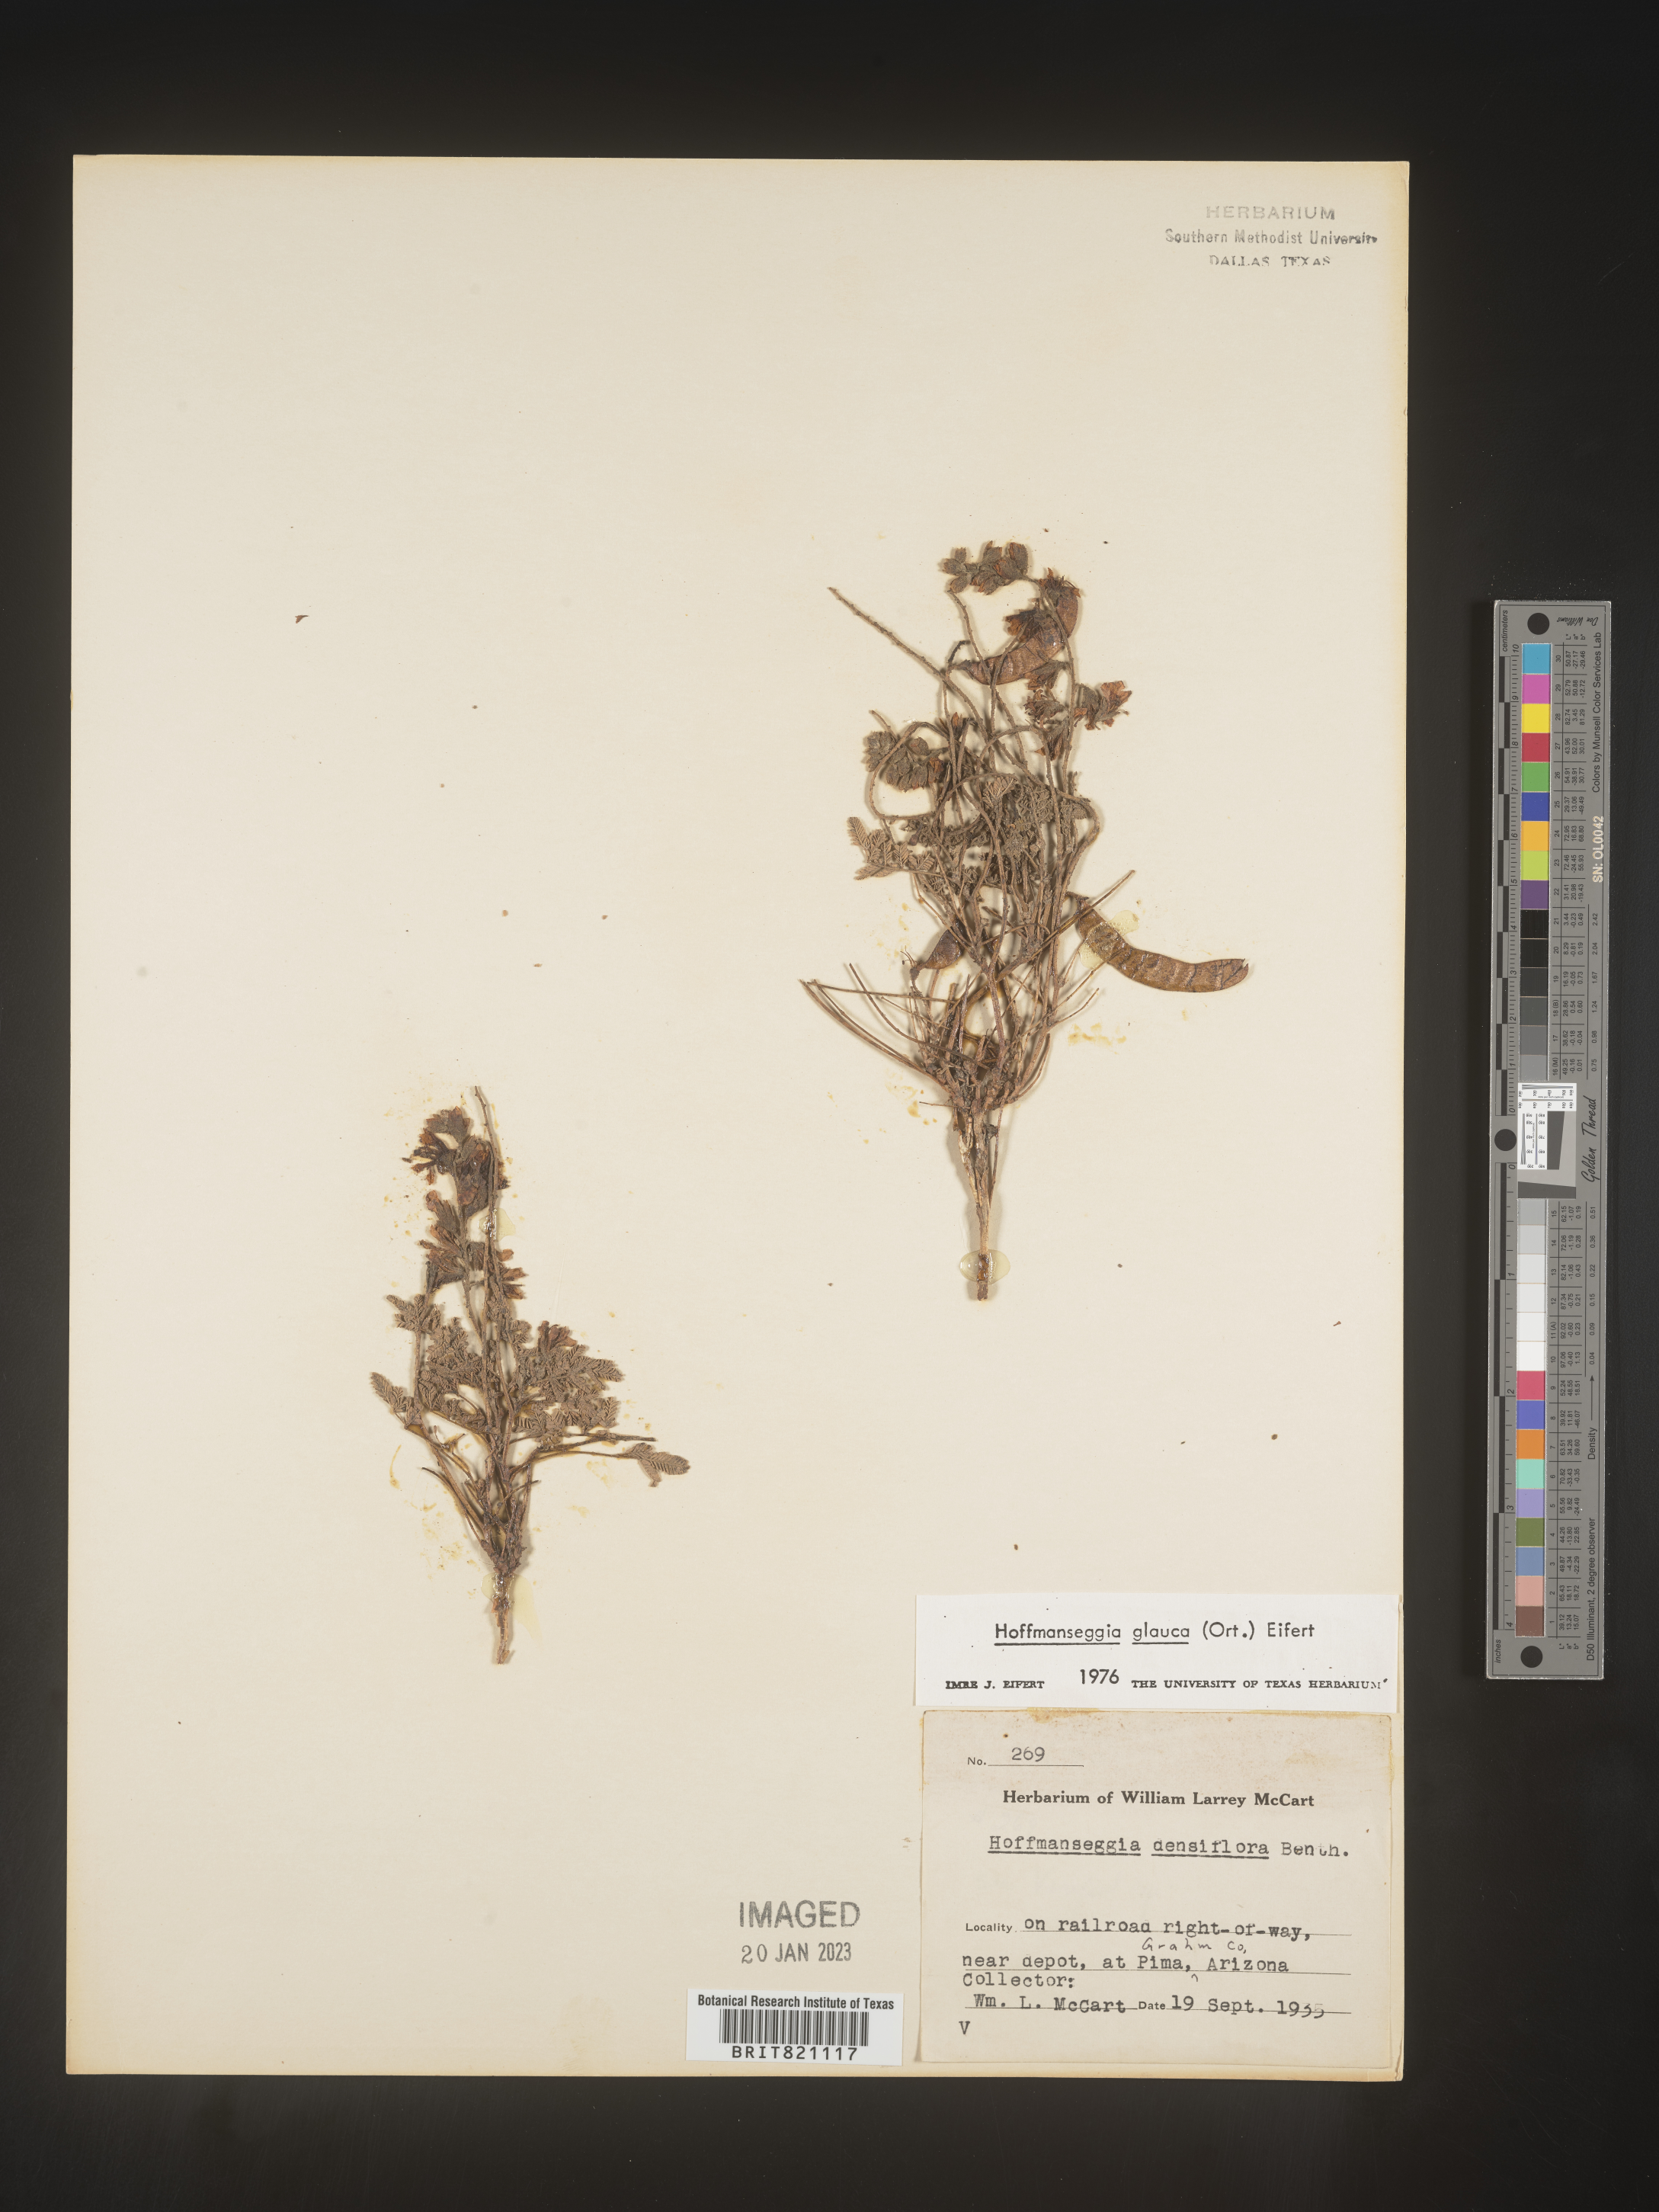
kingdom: Plantae
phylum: Tracheophyta
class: Magnoliopsida
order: Fabales
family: Fabaceae
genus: Hoffmannseggia
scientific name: Hoffmannseggia
